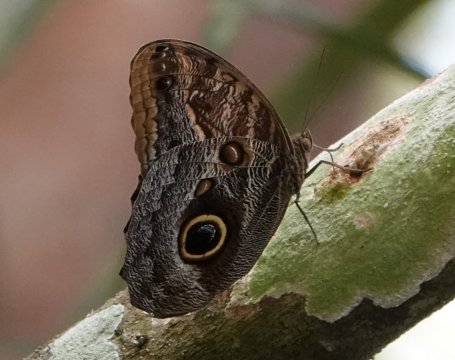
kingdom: Animalia
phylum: Arthropoda
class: Insecta
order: Lepidoptera
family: Nymphalidae
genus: Caligo
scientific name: Caligo telamonius
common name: Pale Owl-Butterfly
